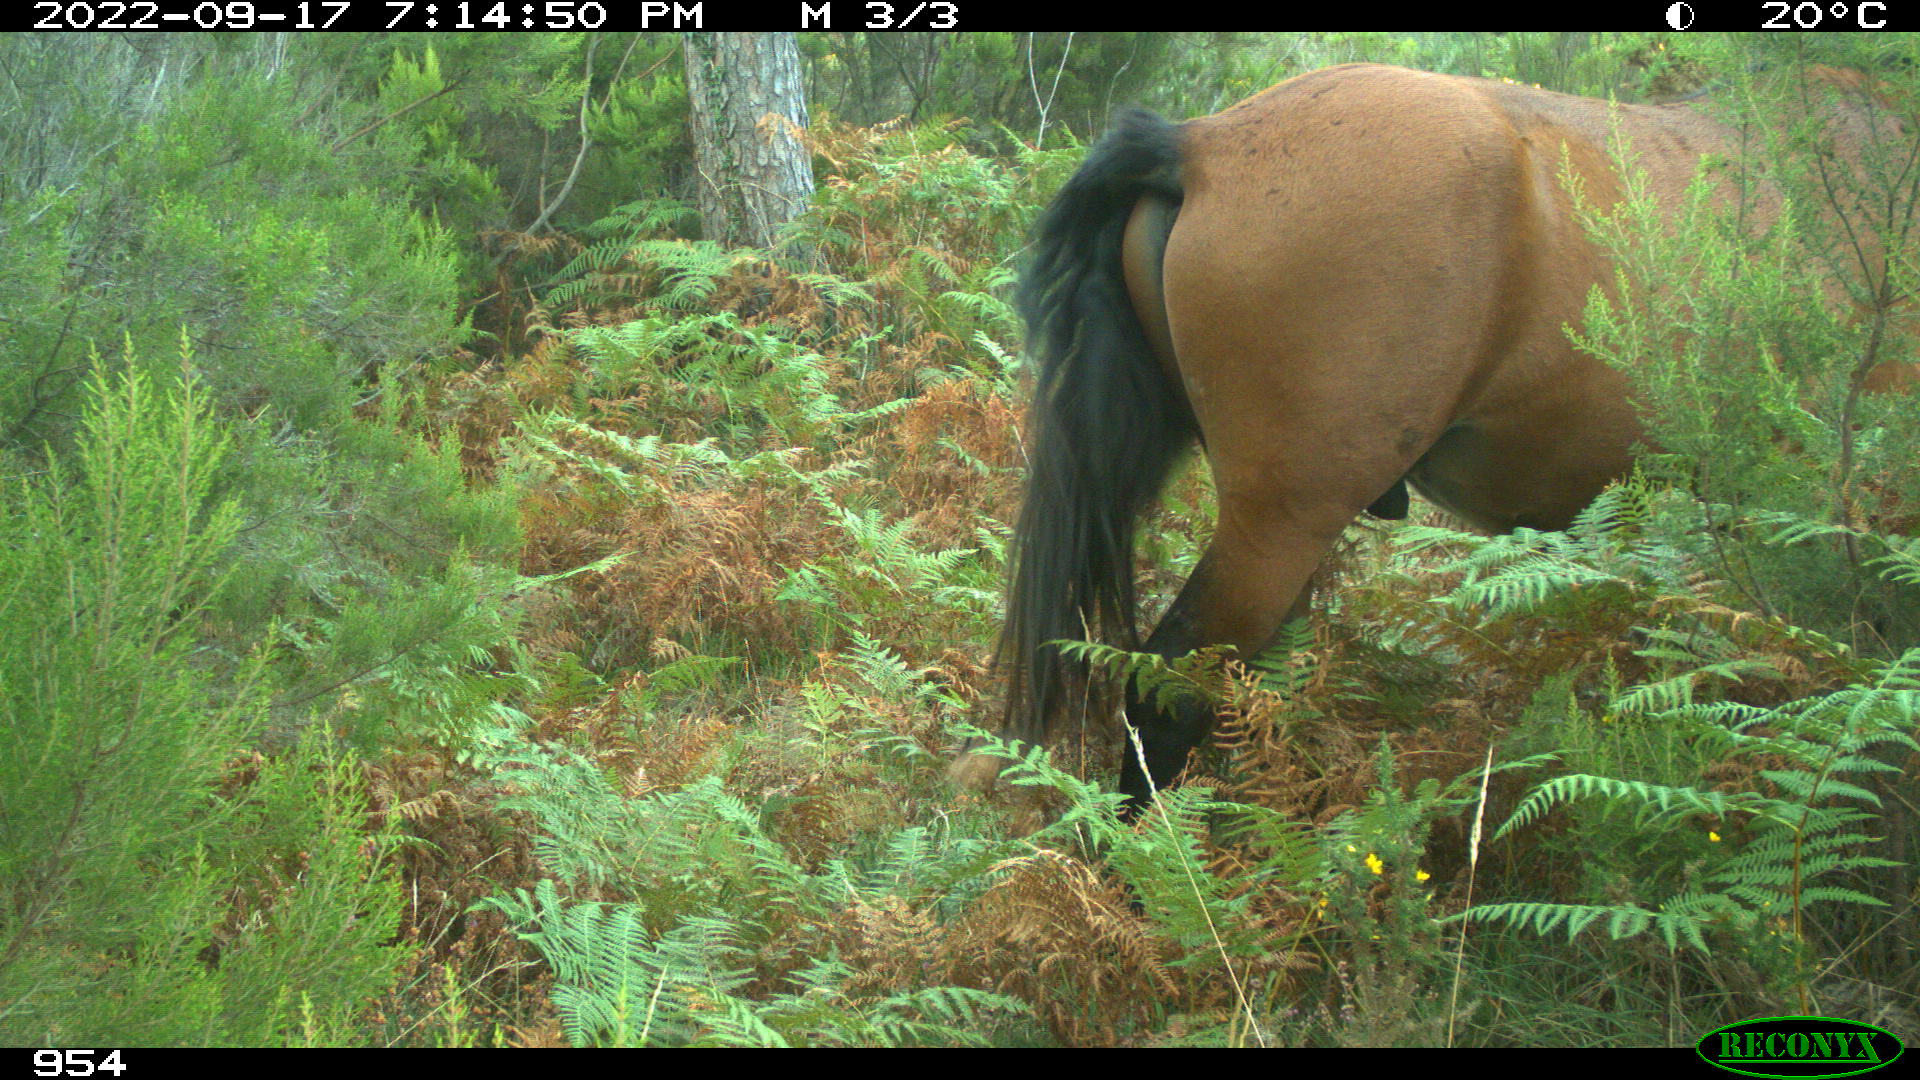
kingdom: Animalia
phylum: Chordata
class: Mammalia
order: Perissodactyla
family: Equidae
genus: Equus
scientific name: Equus caballus
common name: Horse
